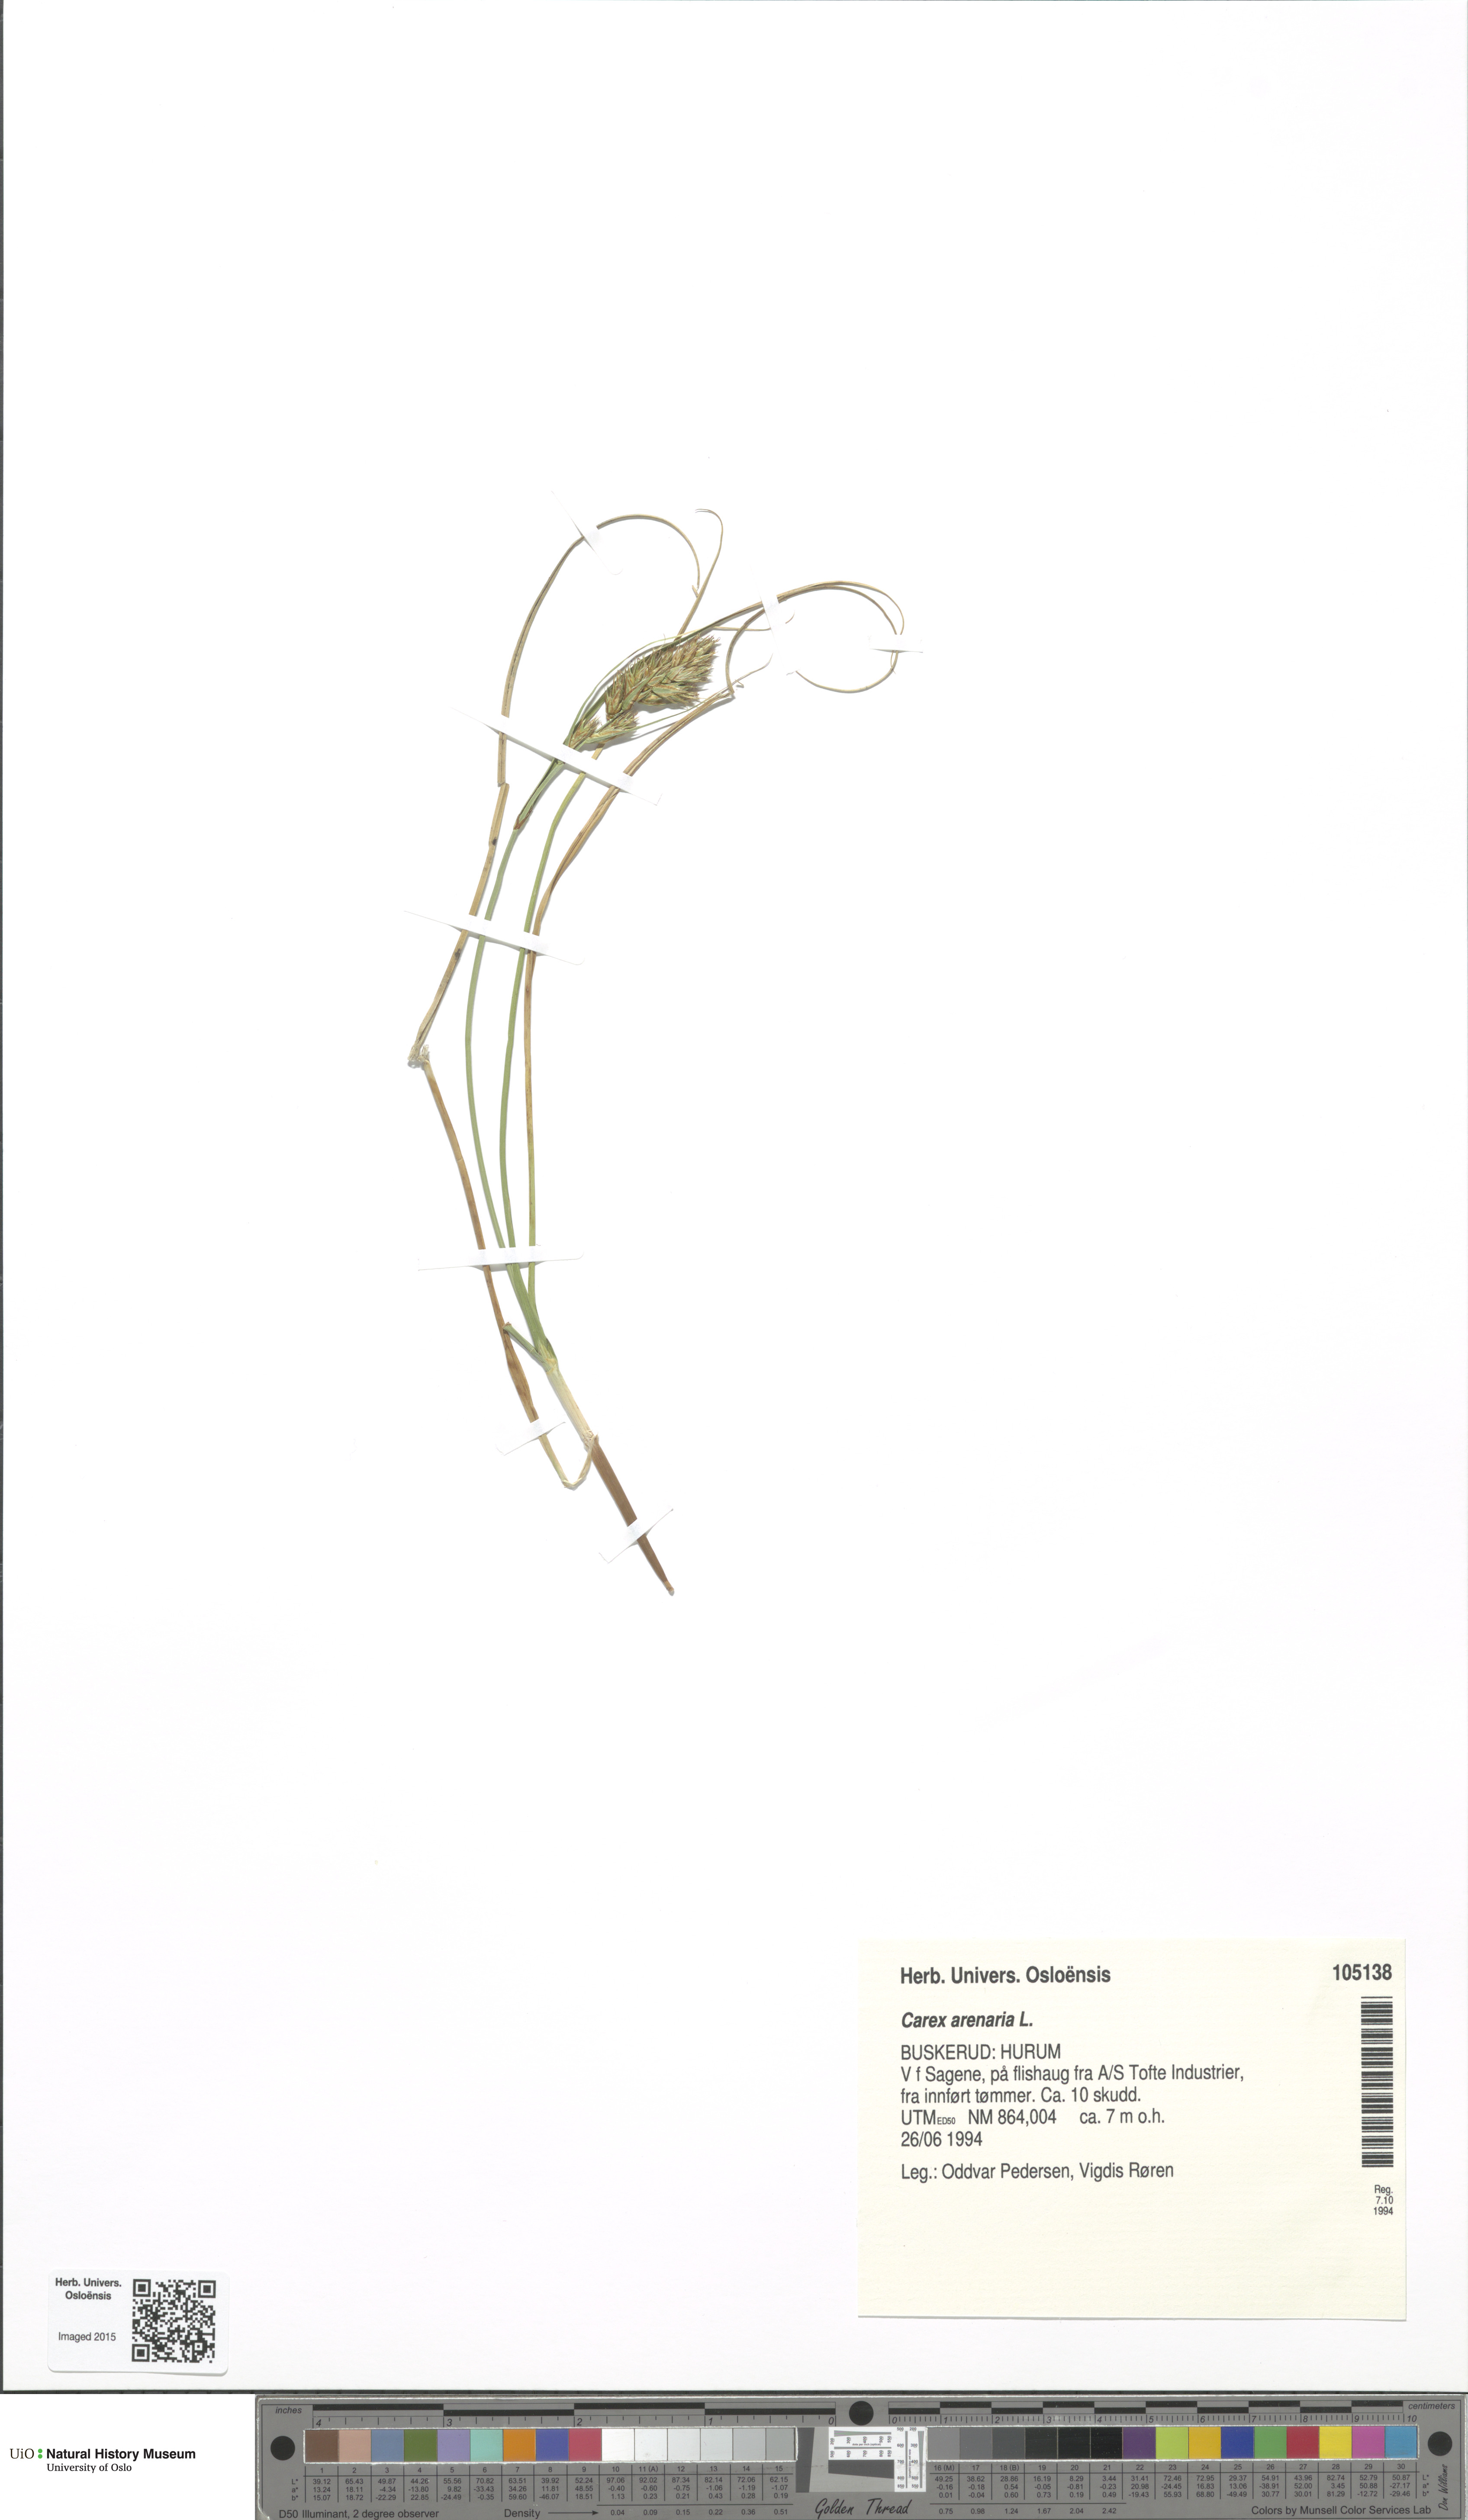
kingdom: Plantae
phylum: Tracheophyta
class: Liliopsida
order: Poales
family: Cyperaceae
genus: Carex
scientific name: Carex arenaria
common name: Sand sedge
